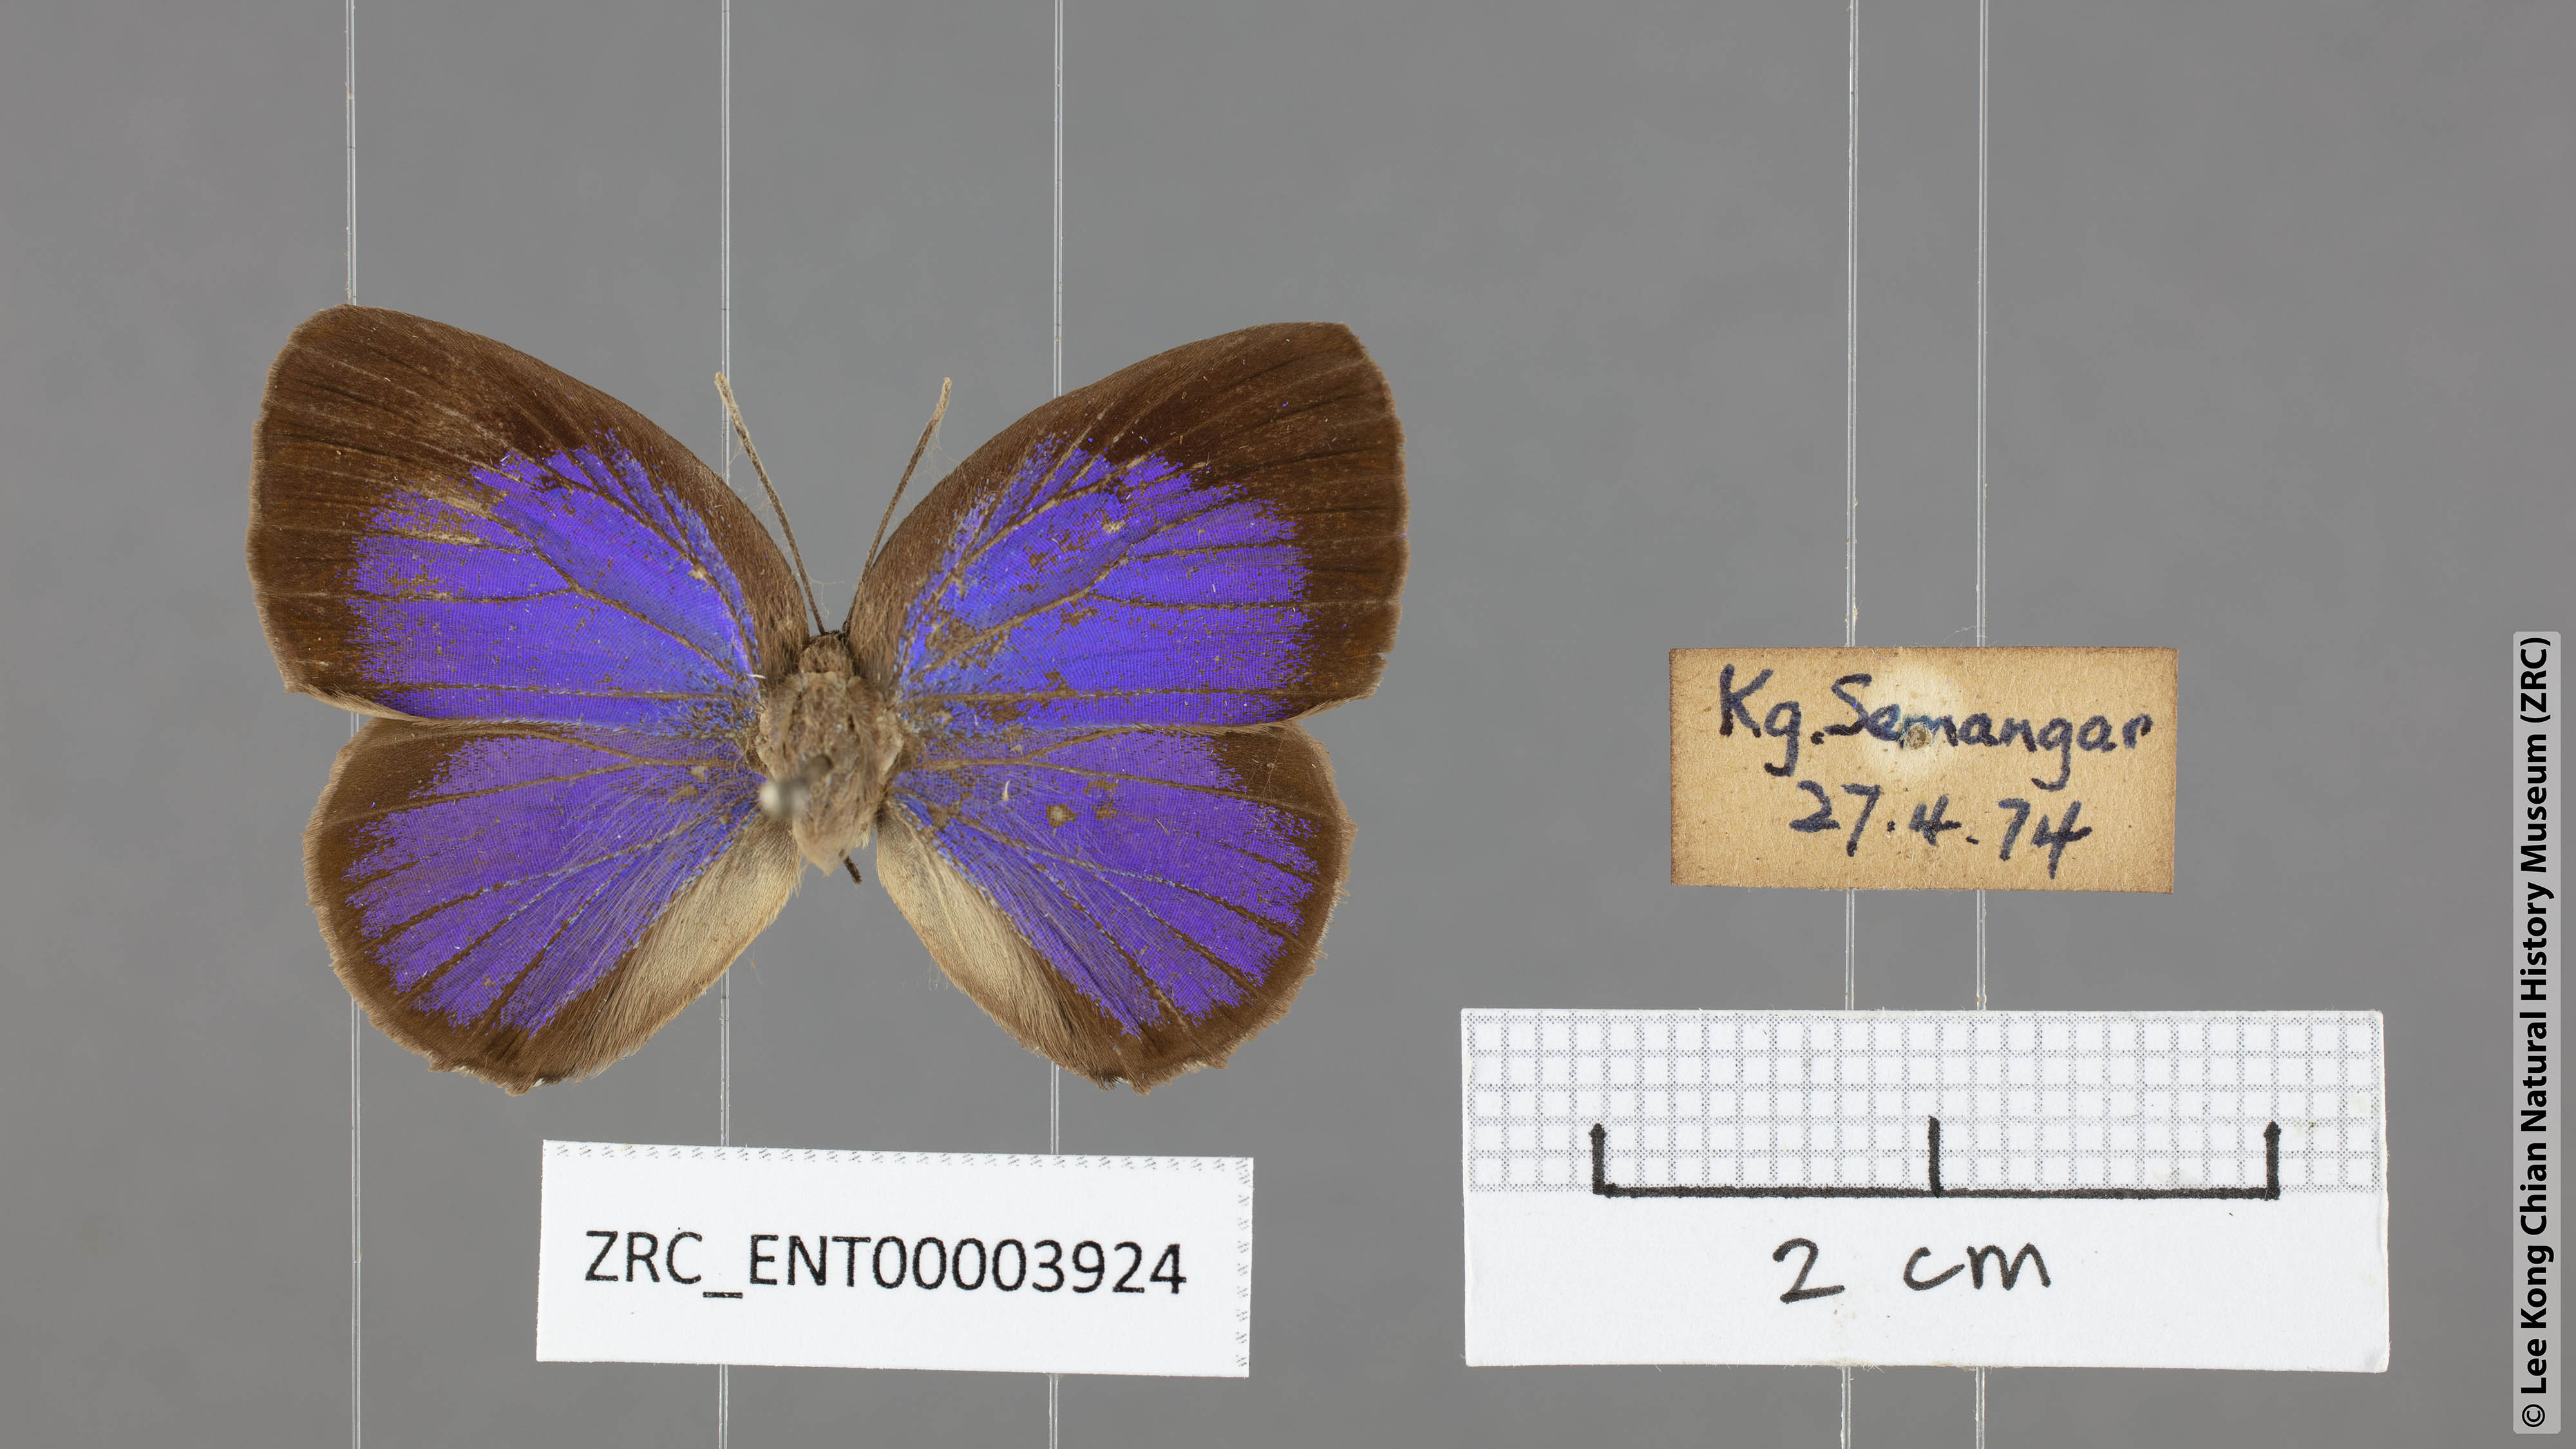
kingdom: Animalia
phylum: Arthropoda
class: Insecta
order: Lepidoptera
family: Lycaenidae
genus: Arhopala
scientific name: Arhopala epimuta
